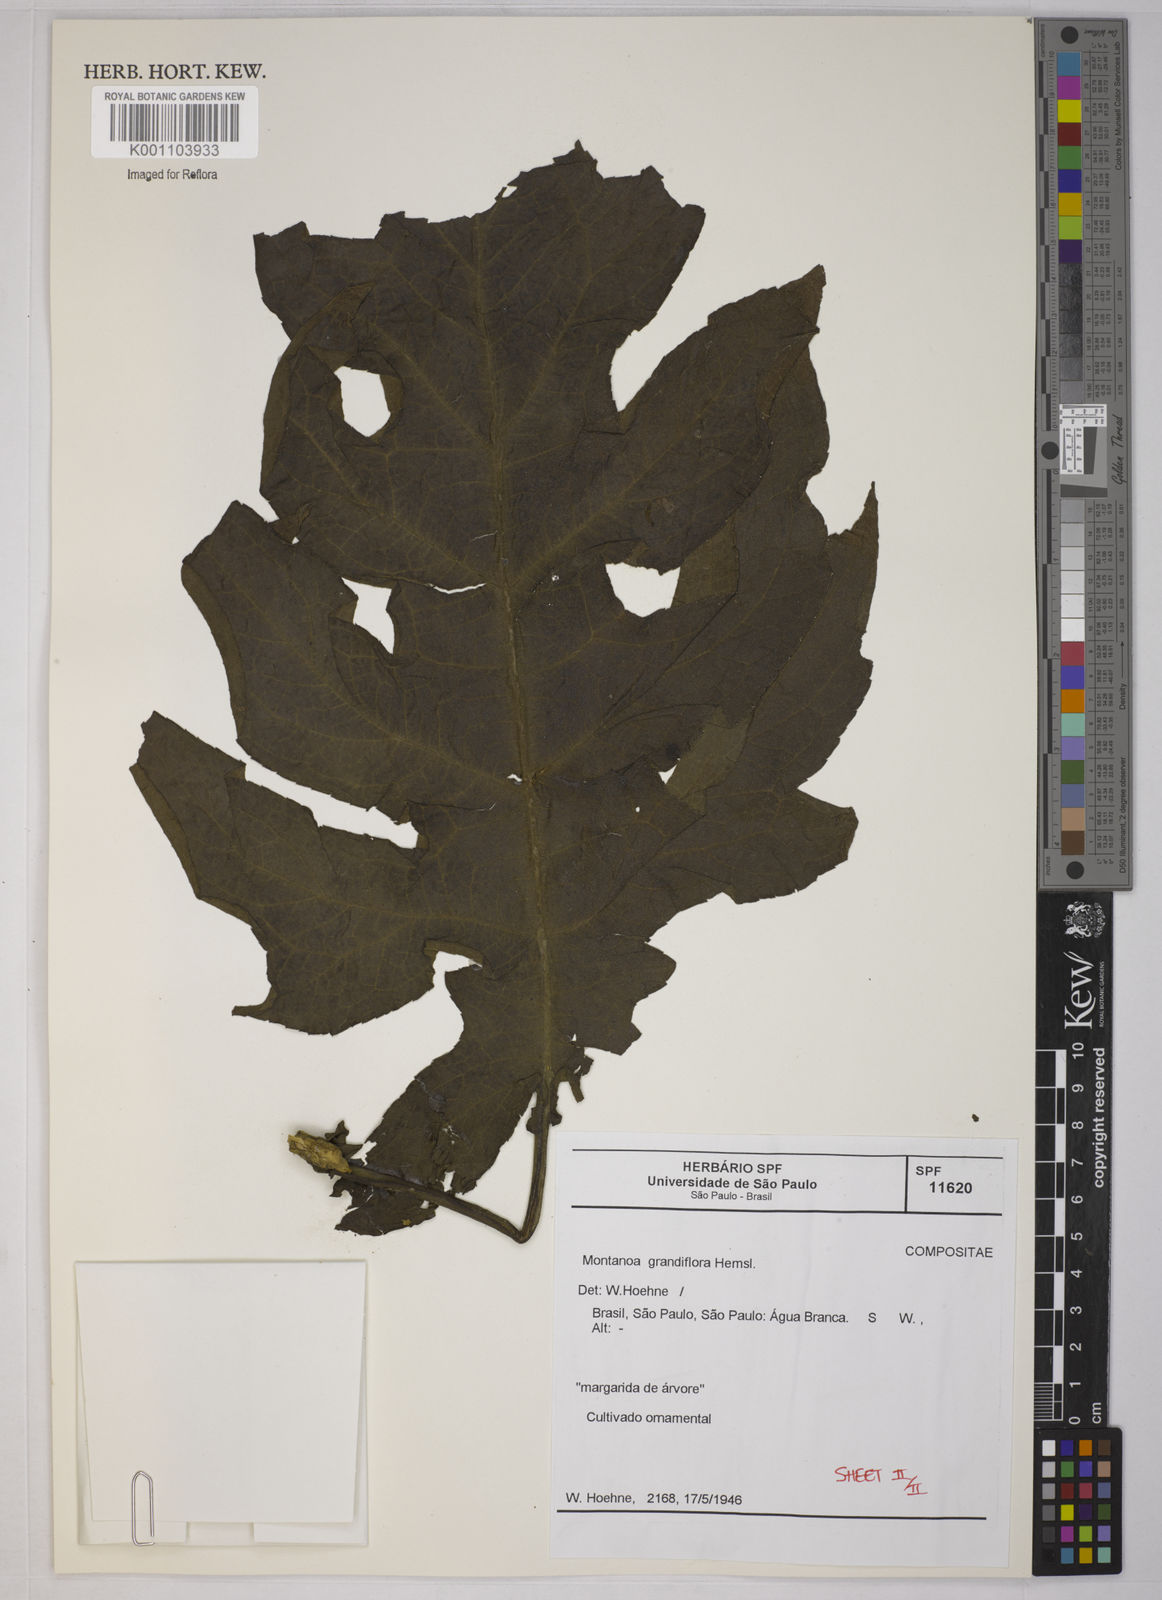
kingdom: Plantae
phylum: Tracheophyta
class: Magnoliopsida
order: Asterales
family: Asteraceae
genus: Montanoa
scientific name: Montanoa speciosa
